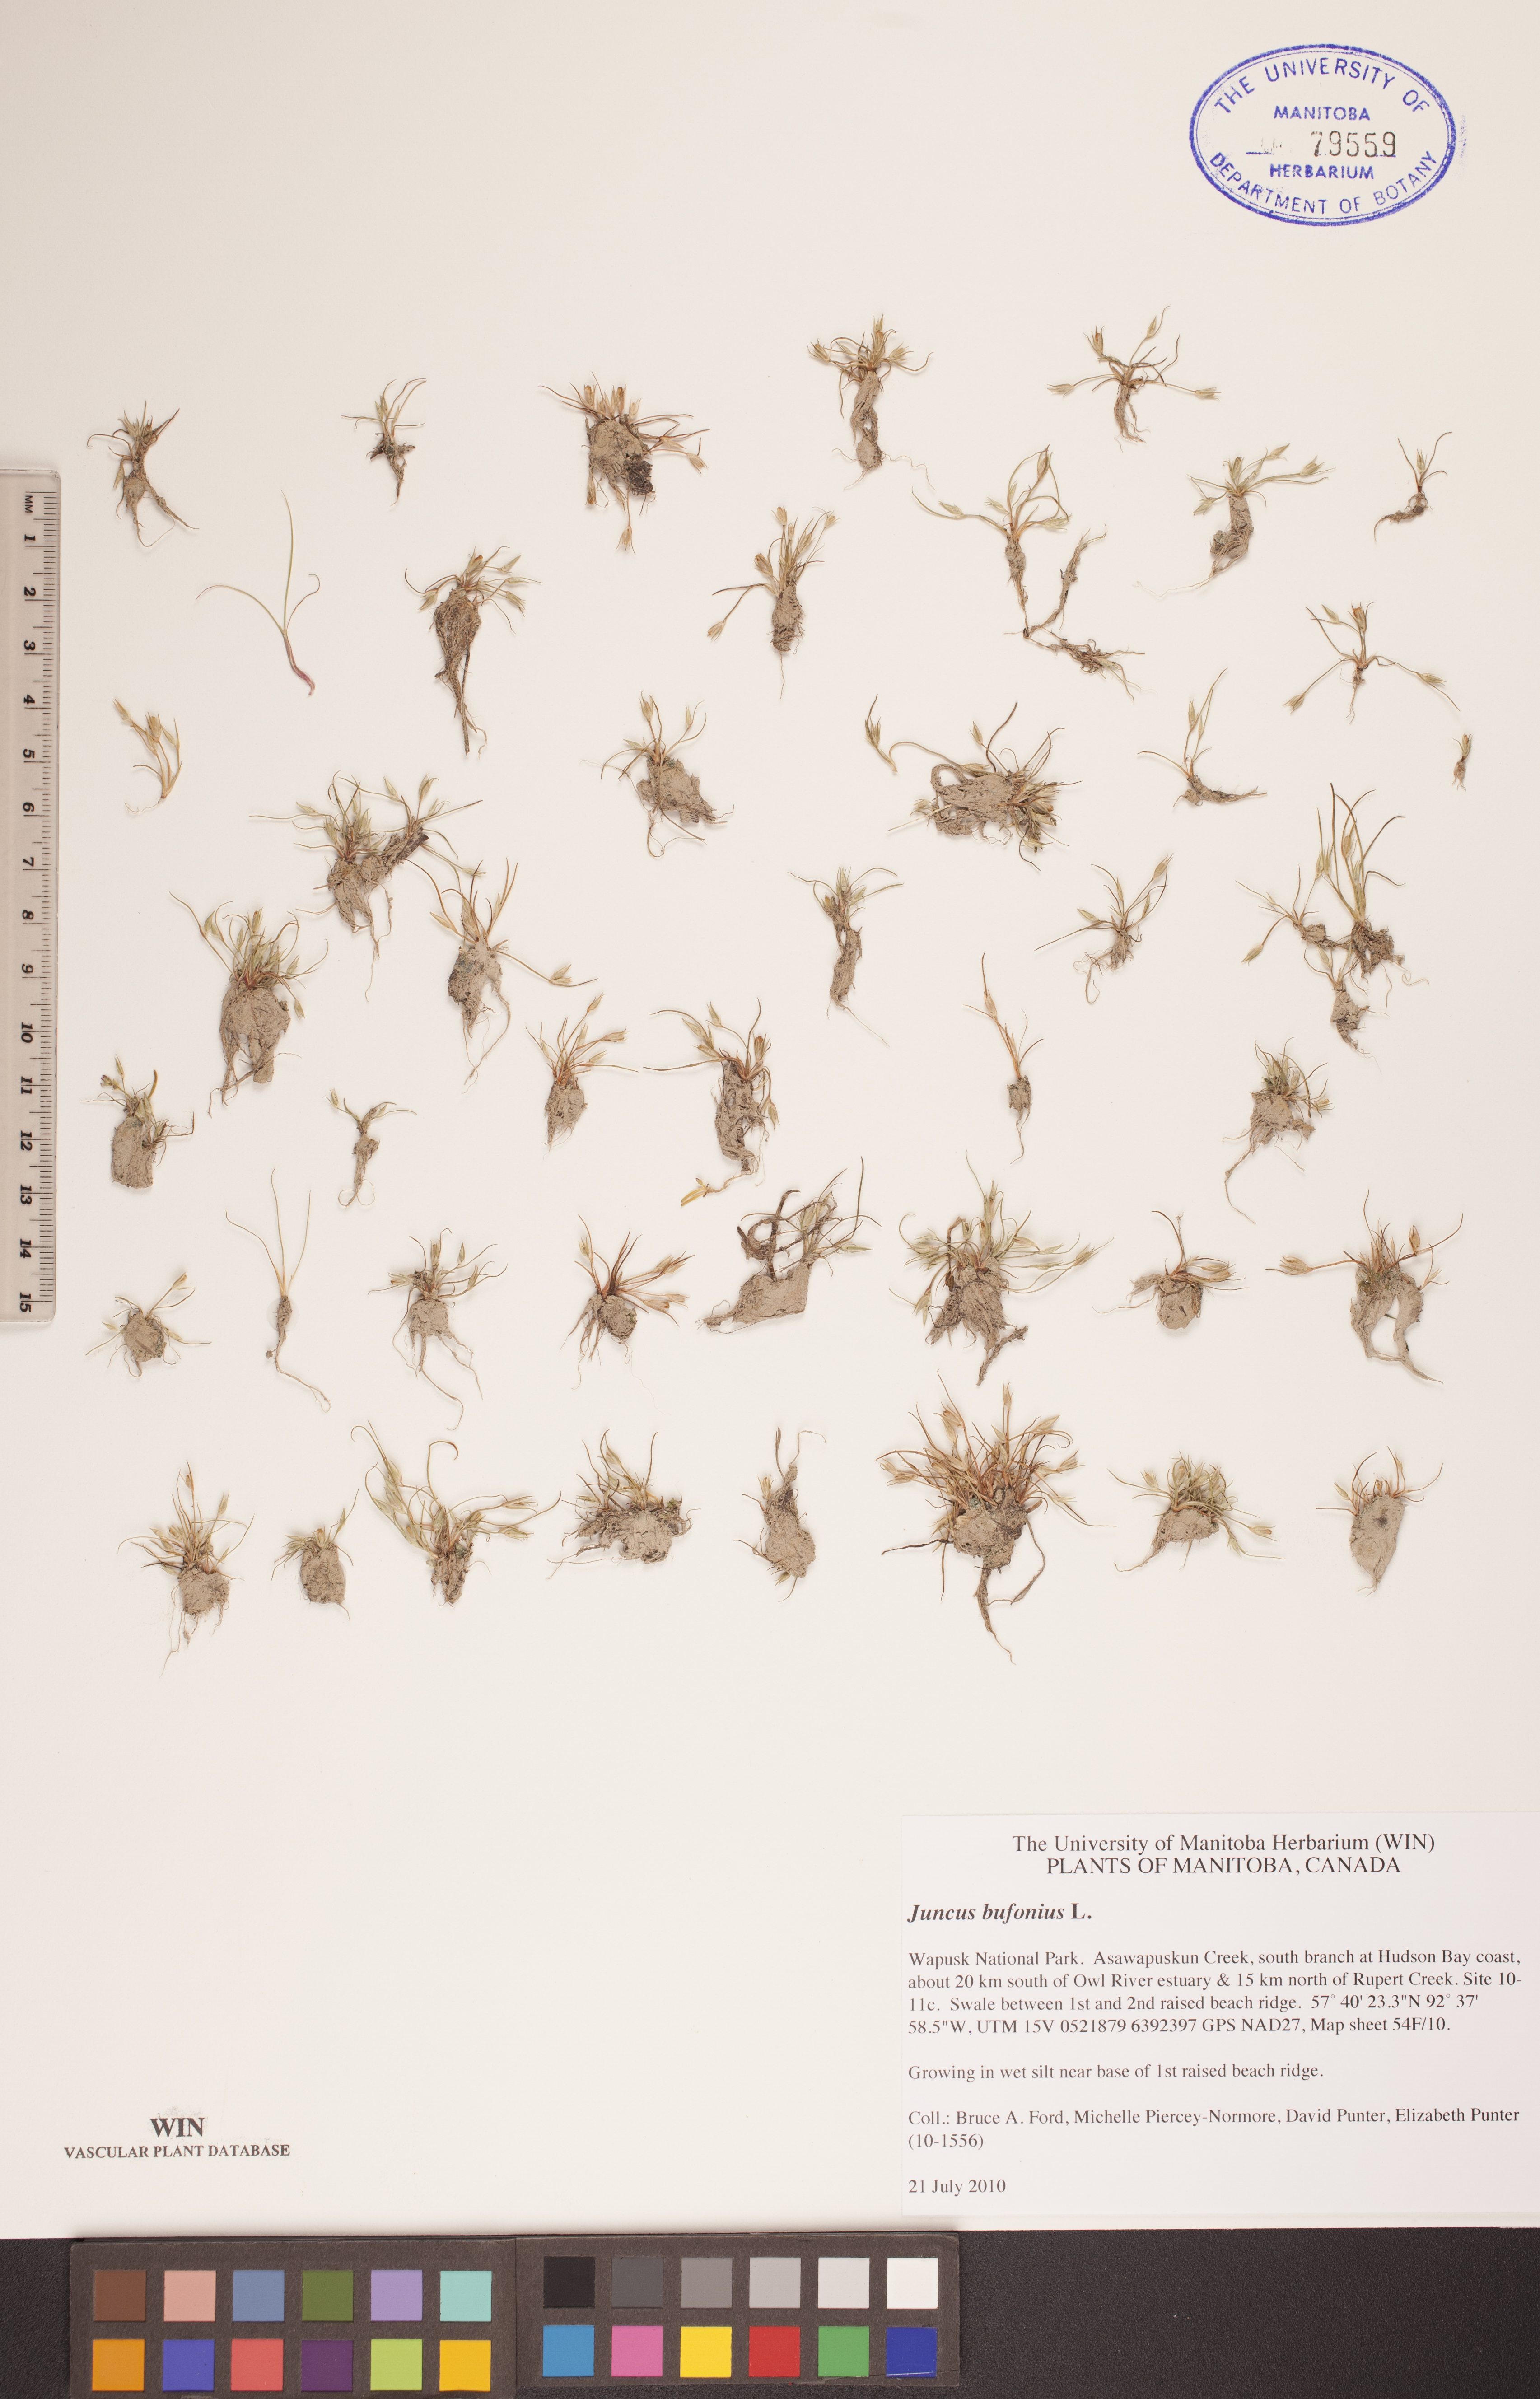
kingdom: Plantae
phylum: Tracheophyta
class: Liliopsida
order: Poales
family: Juncaceae
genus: Juncus
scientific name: Juncus bufonius
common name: Toad rush
